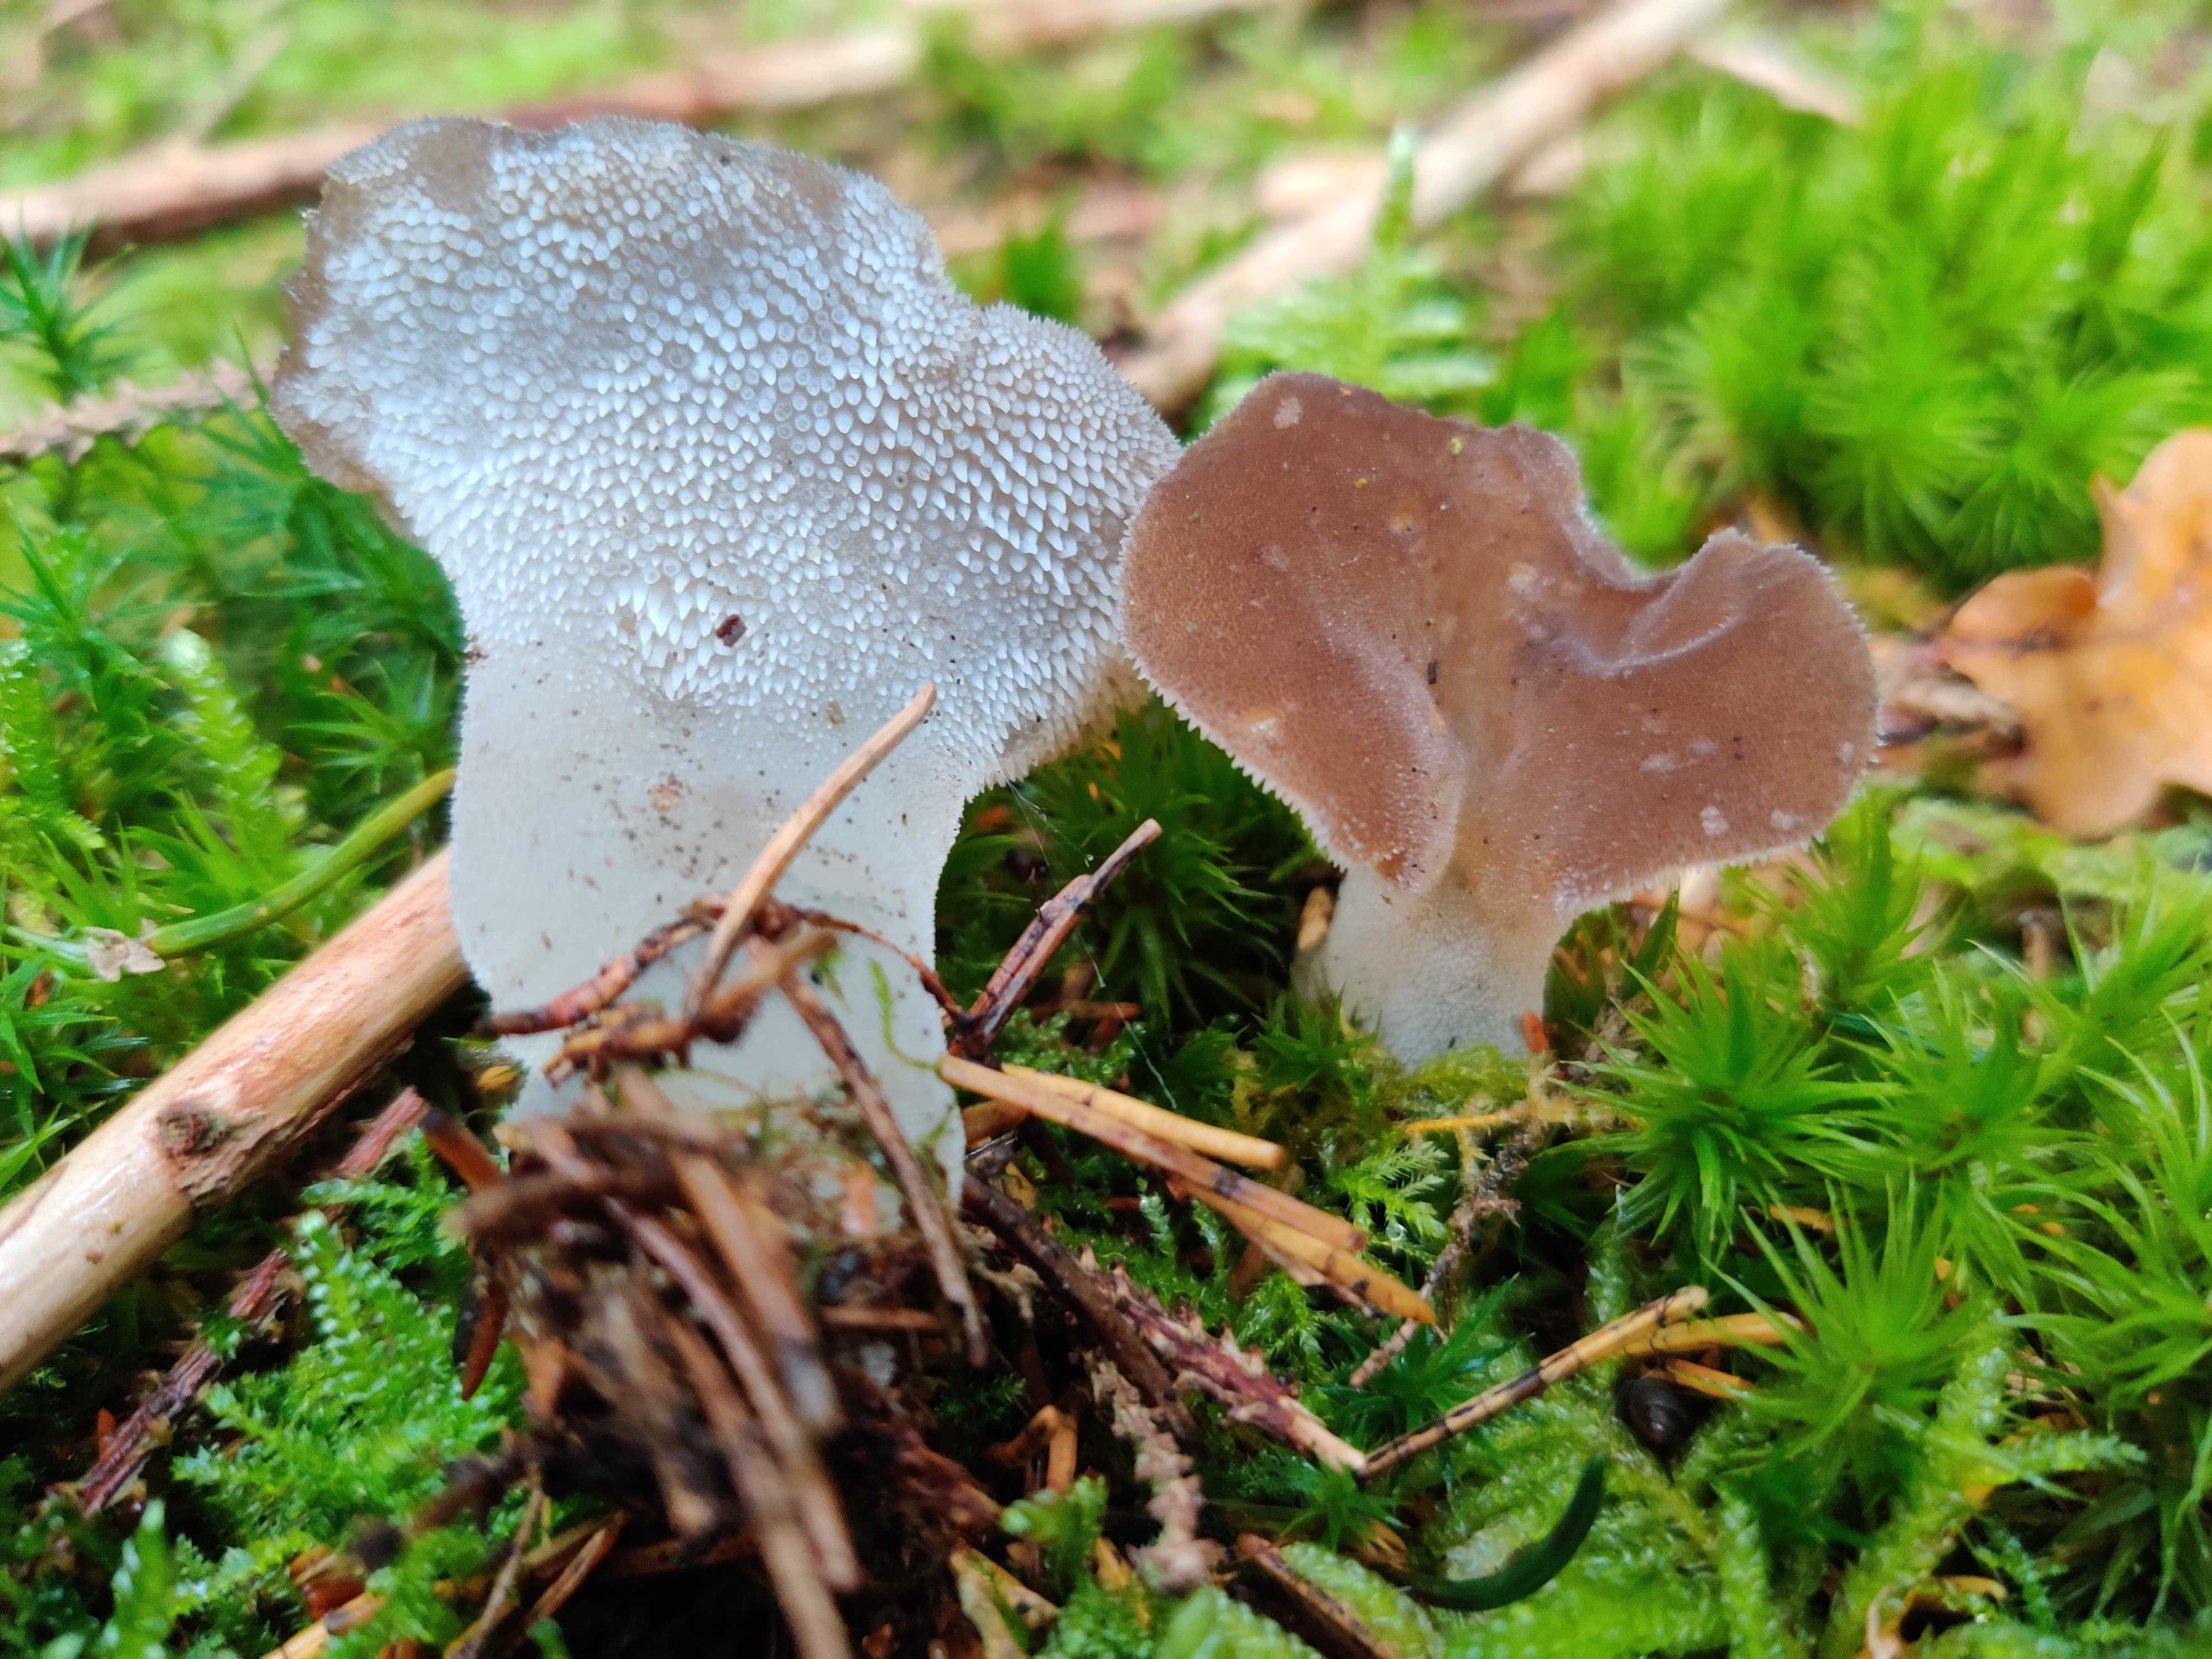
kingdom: Fungi
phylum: Basidiomycota
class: Agaricomycetes
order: Auriculariales
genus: Pseudohydnum
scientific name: Pseudohydnum gelatinosum
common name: bævretand
